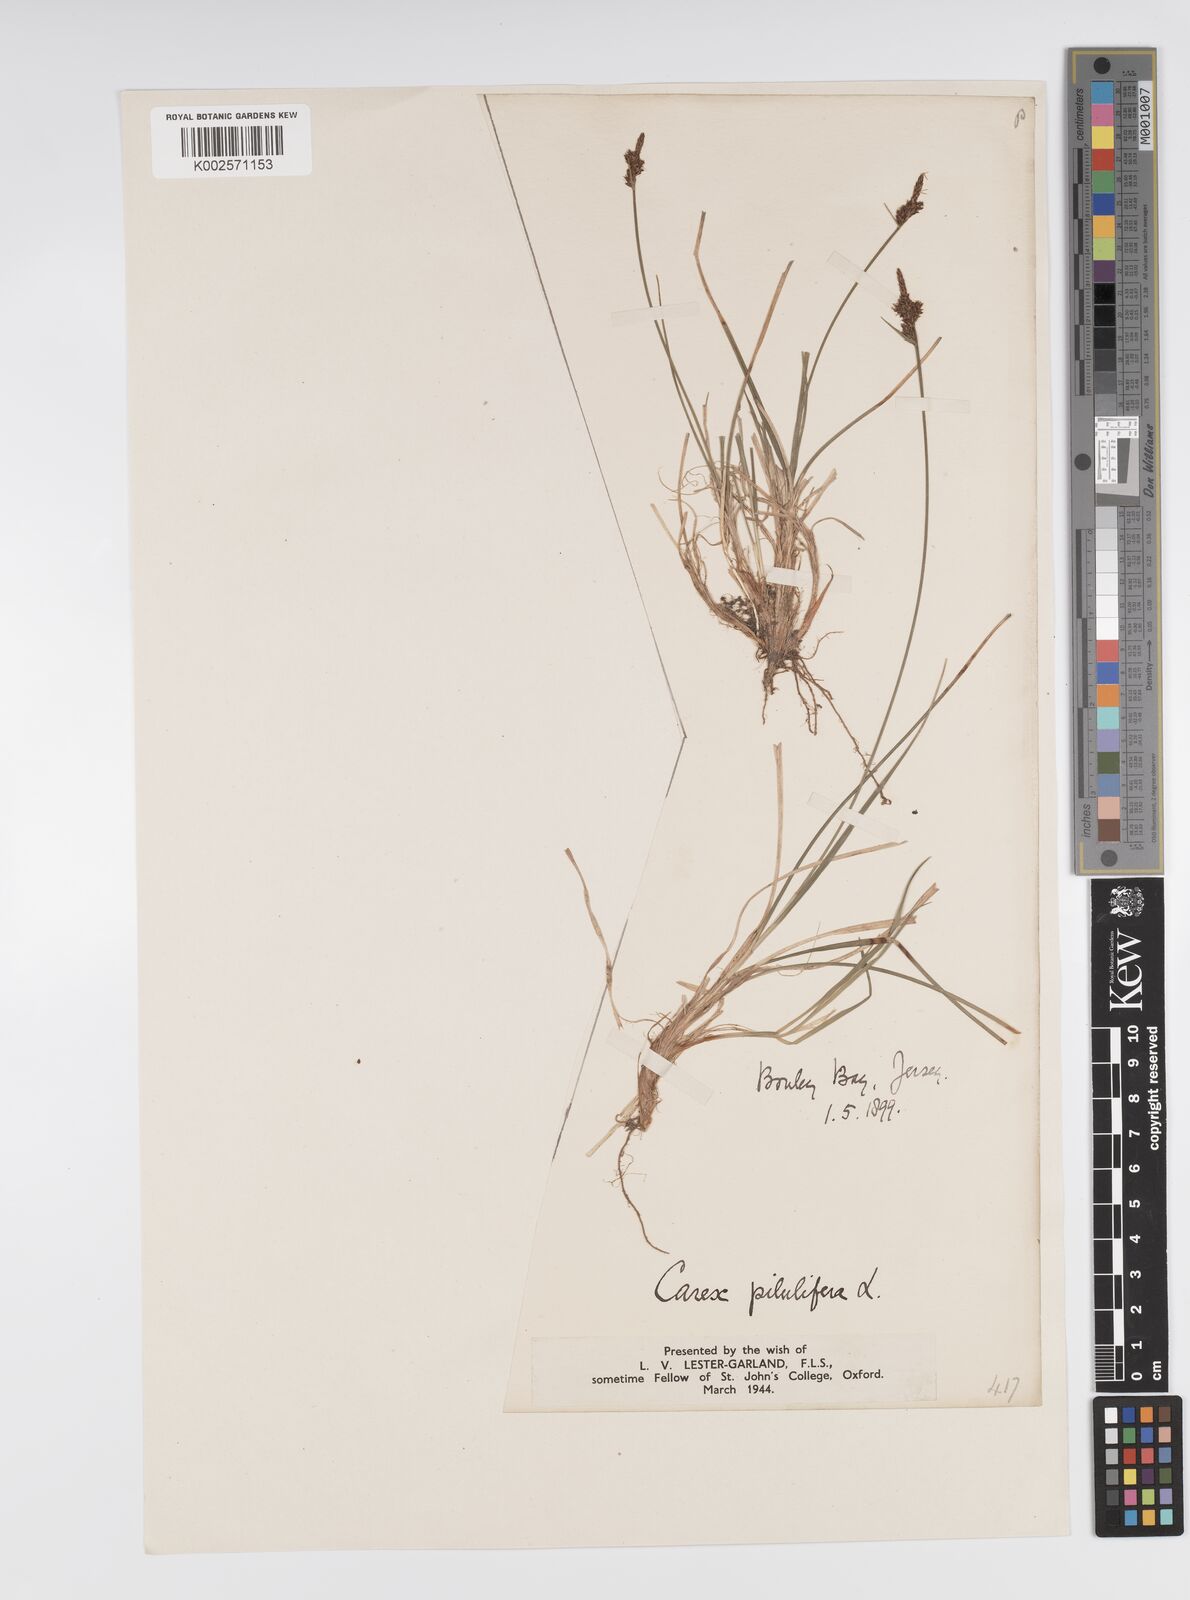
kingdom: Plantae
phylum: Tracheophyta
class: Liliopsida
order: Poales
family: Cyperaceae
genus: Carex
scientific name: Carex pilulifera
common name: Pill sedge
